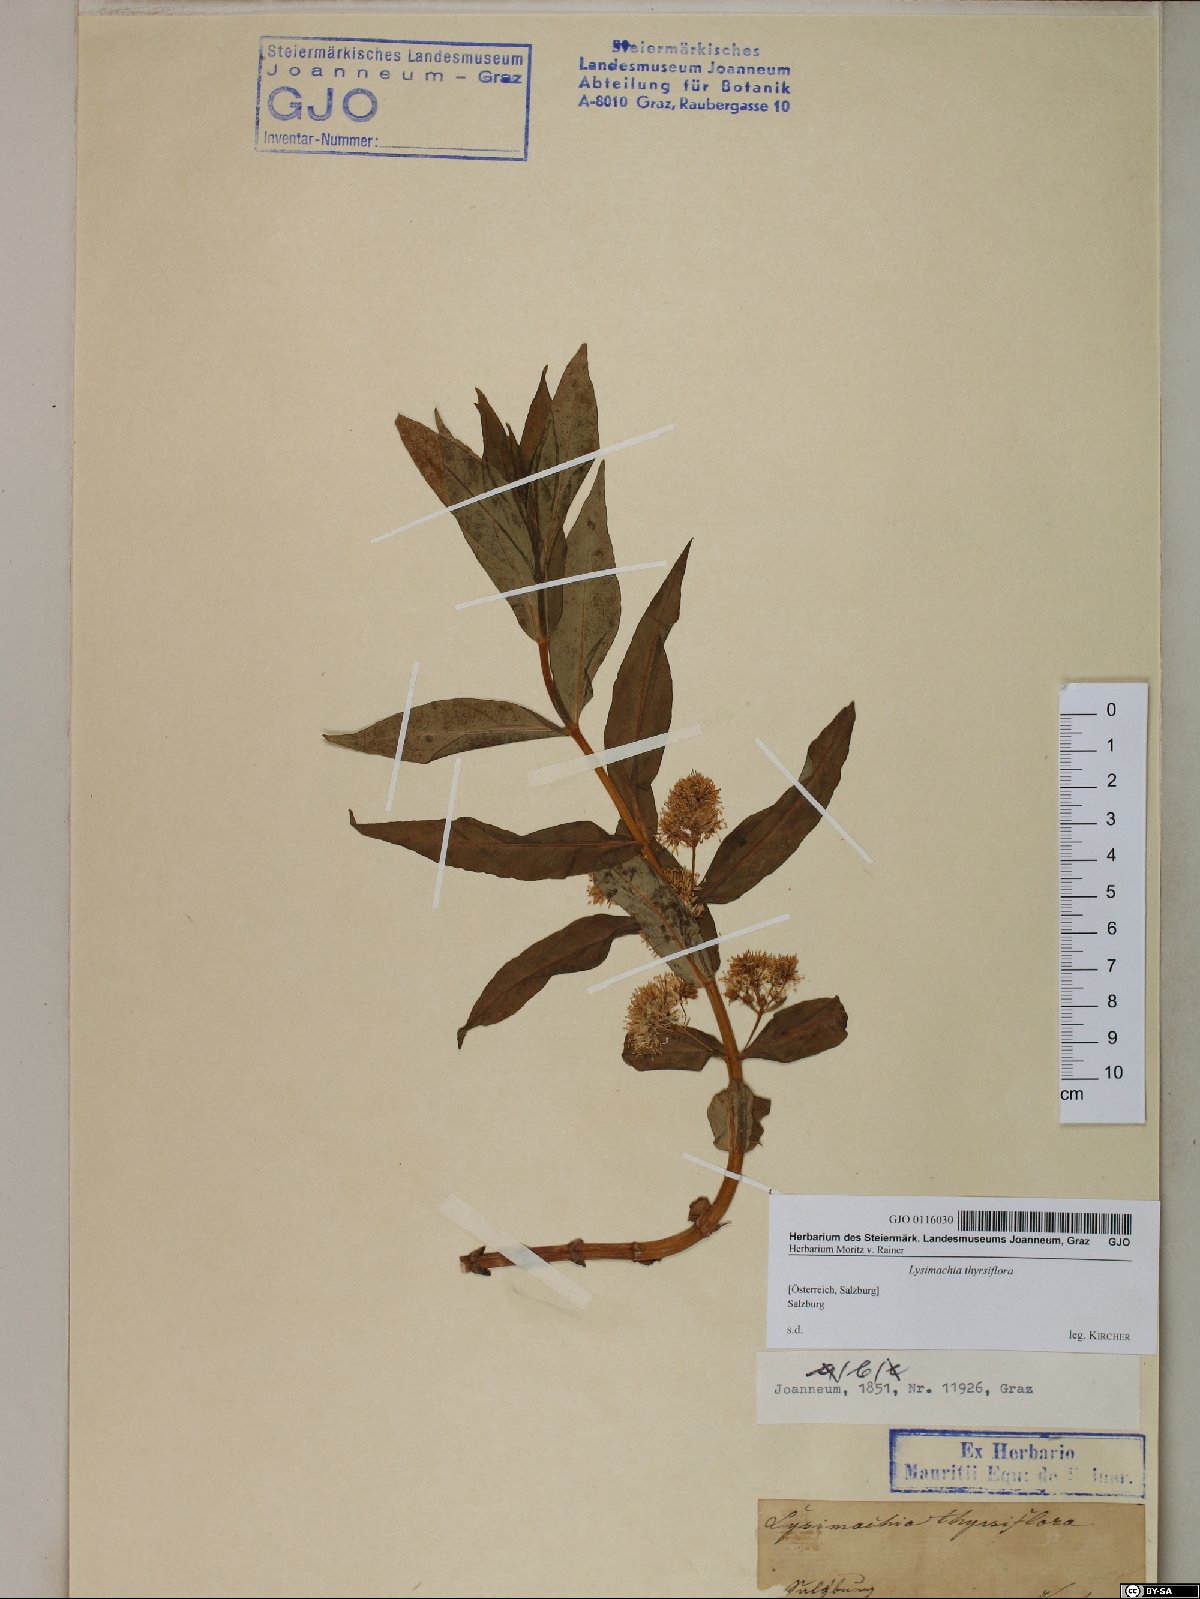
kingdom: Plantae
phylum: Tracheophyta
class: Magnoliopsida
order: Ericales
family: Primulaceae
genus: Lysimachia
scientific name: Lysimachia thyrsiflora
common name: Tufted loosestrife
